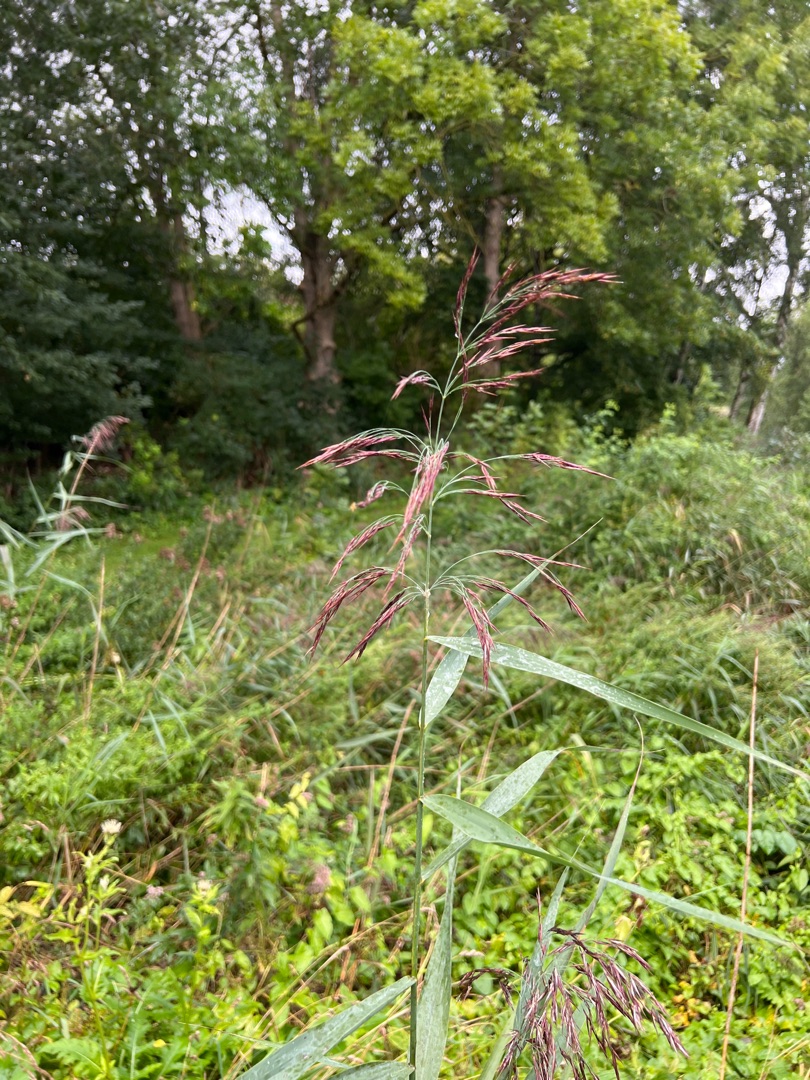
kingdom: Plantae
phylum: Tracheophyta
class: Liliopsida
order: Poales
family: Poaceae
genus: Phragmites
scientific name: Phragmites australis
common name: Tagrør
